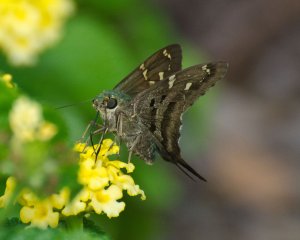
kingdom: Animalia
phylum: Arthropoda
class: Insecta
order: Lepidoptera
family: Hesperiidae
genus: Urbanus
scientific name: Urbanus proteus
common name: Long-tailed Skipper
